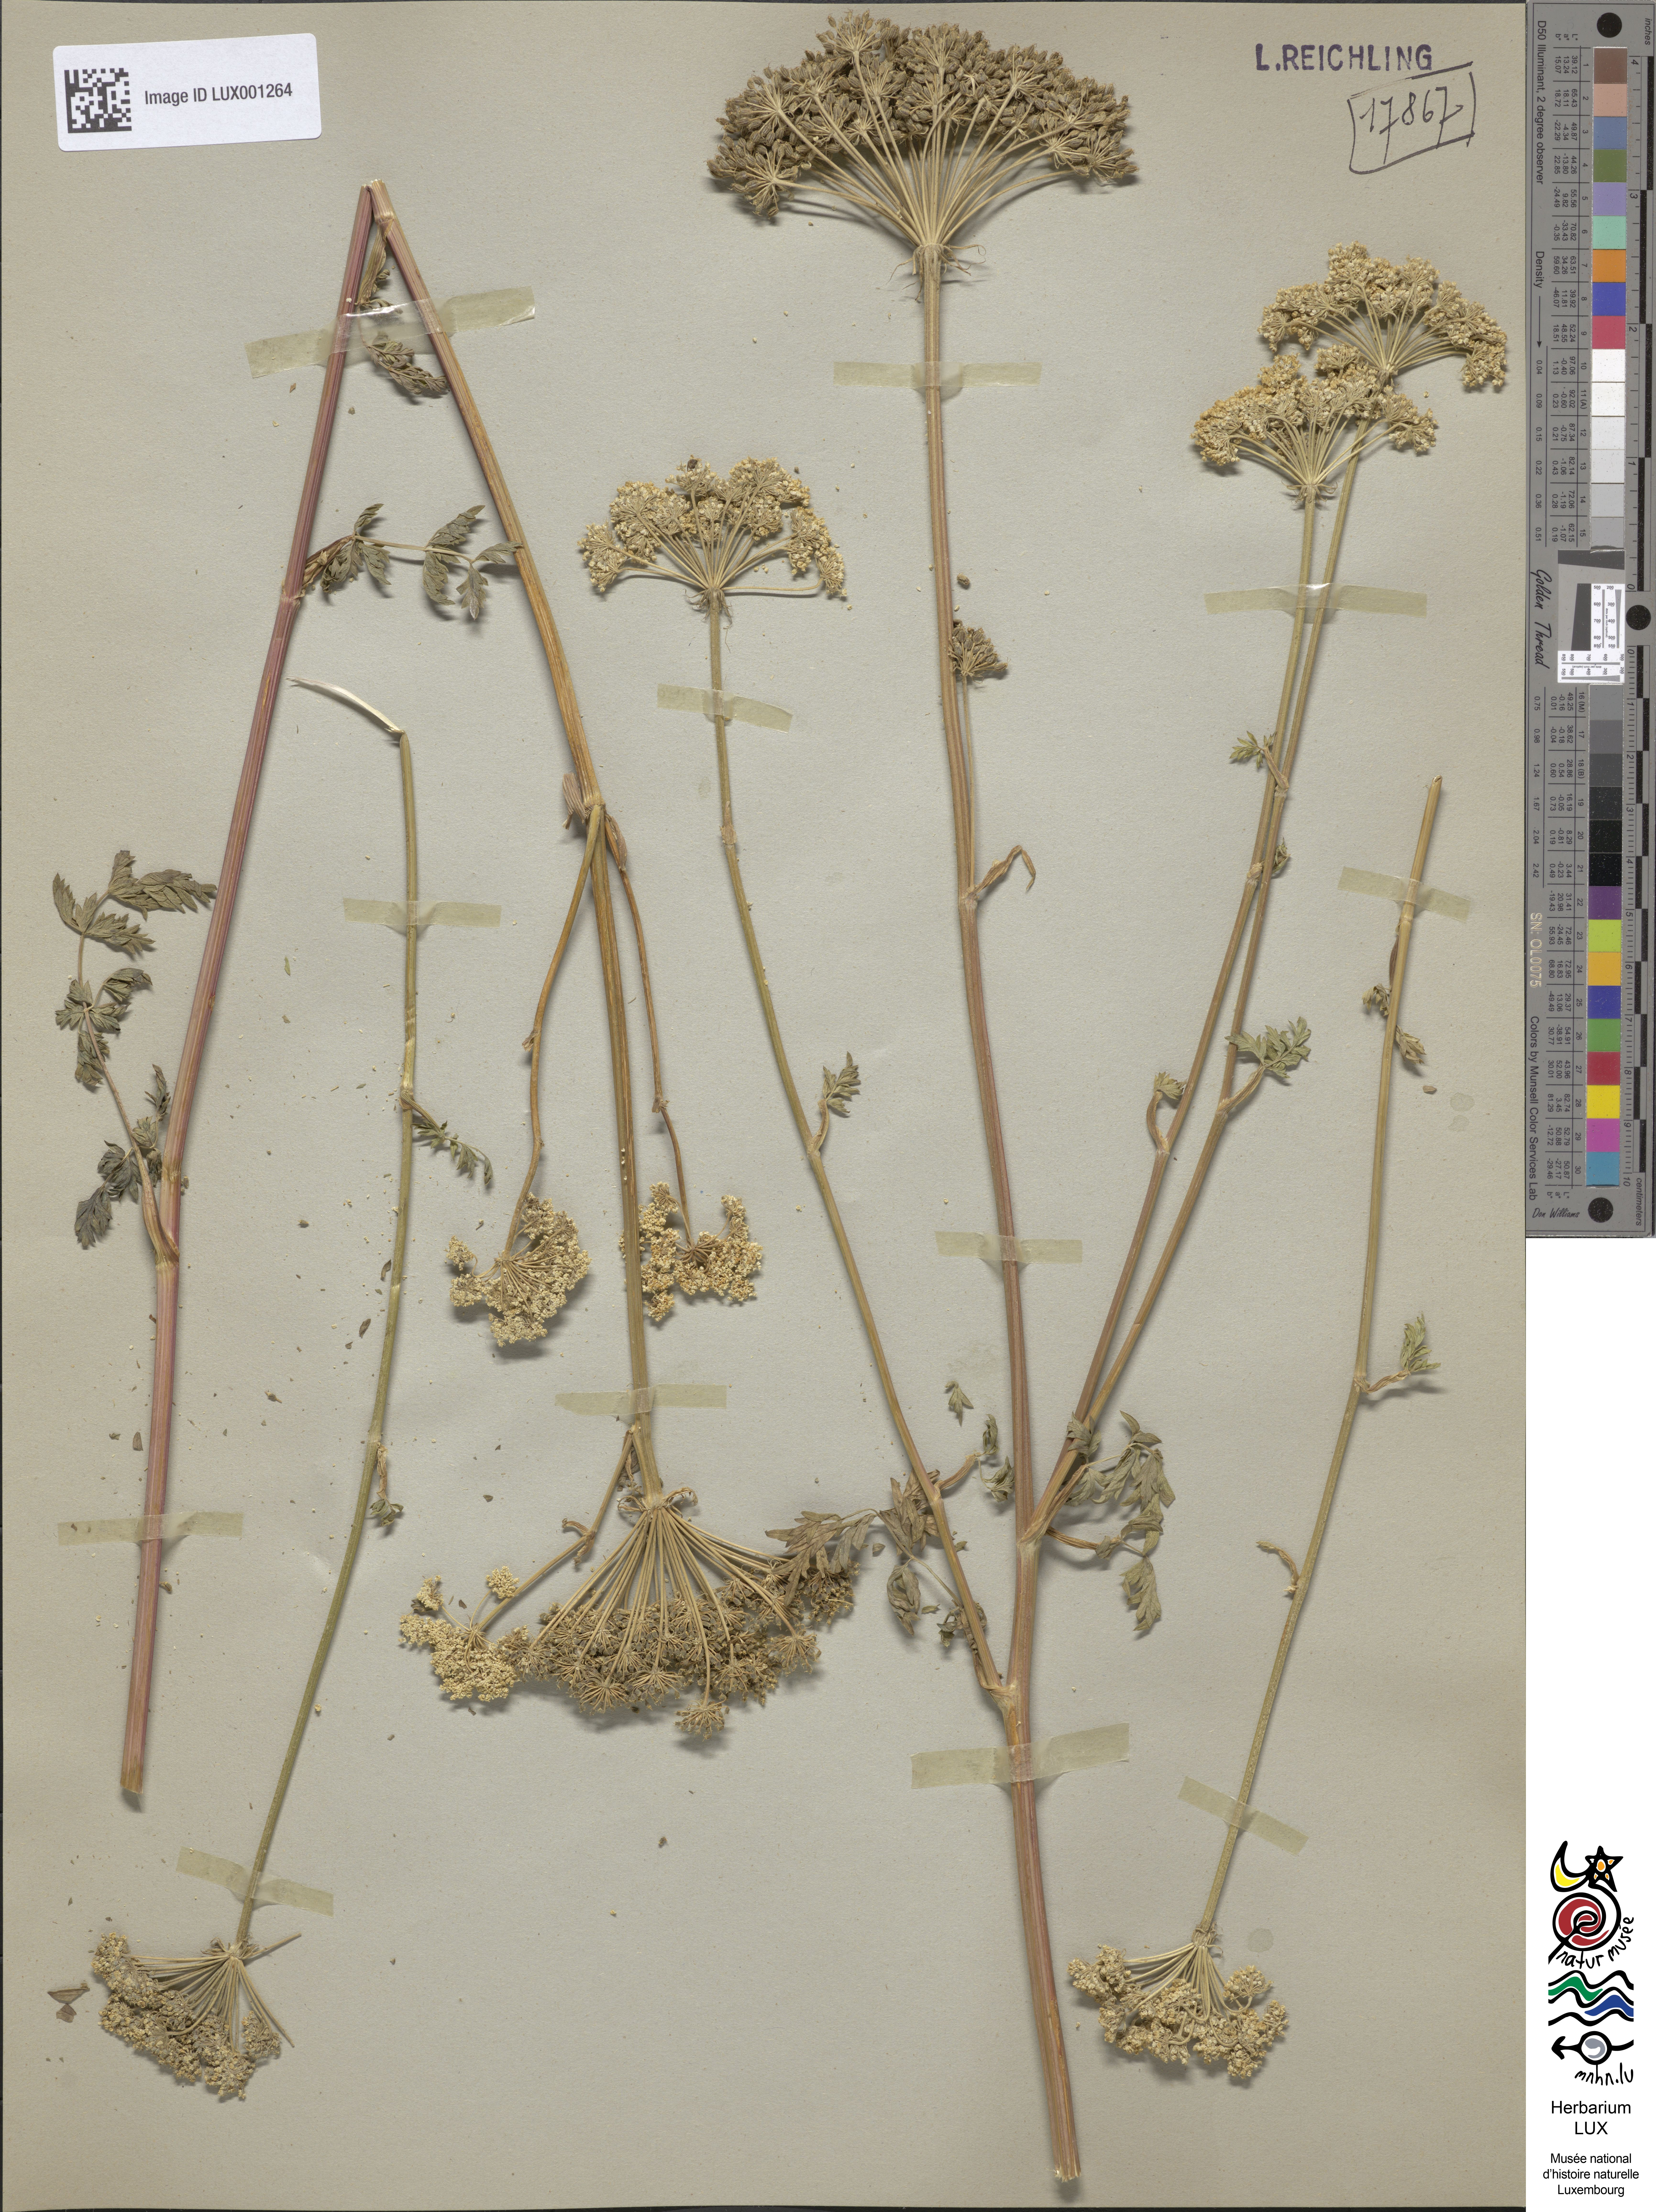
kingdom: Plantae
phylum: Tracheophyta
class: Magnoliopsida
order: Apiales
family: Apiaceae
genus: Seseli
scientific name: Seseli libanotis
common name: Mooncarrot
